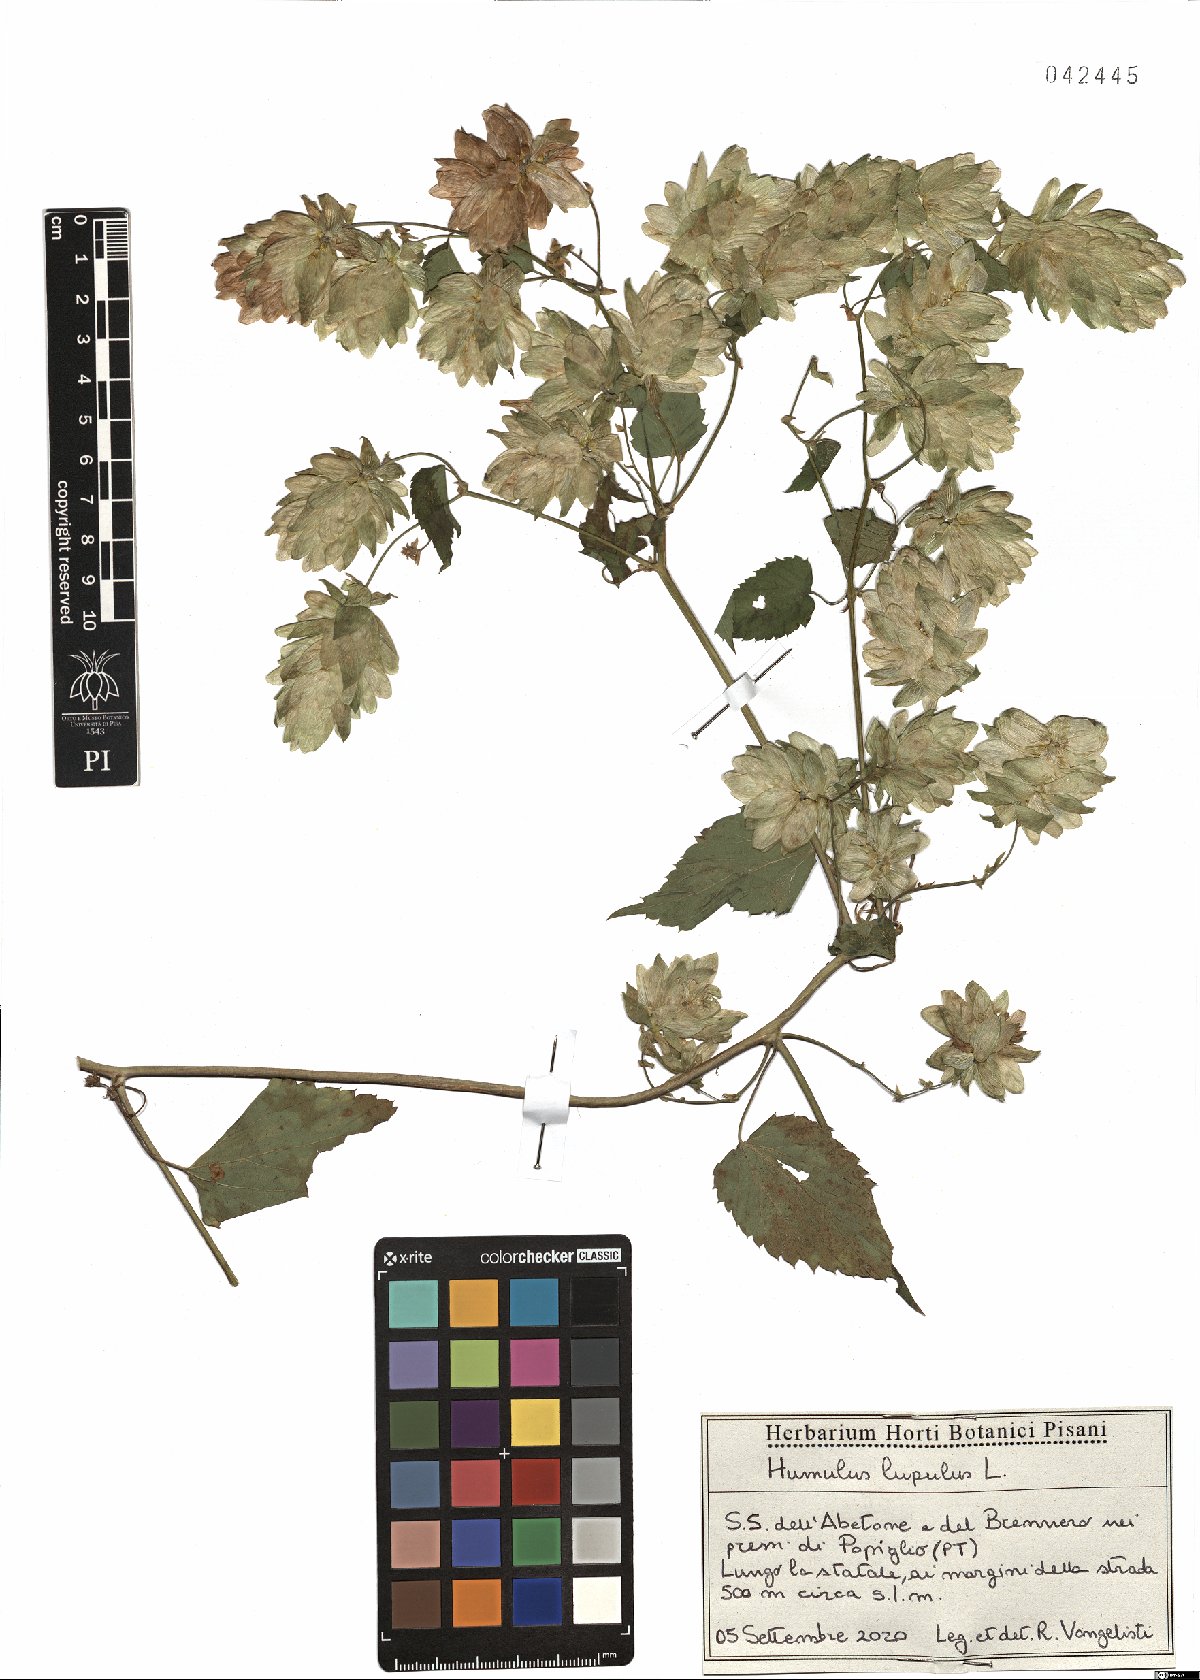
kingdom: Plantae
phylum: Tracheophyta
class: Magnoliopsida
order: Rosales
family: Cannabaceae
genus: Humulus
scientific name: Humulus lupulus
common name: Hop
